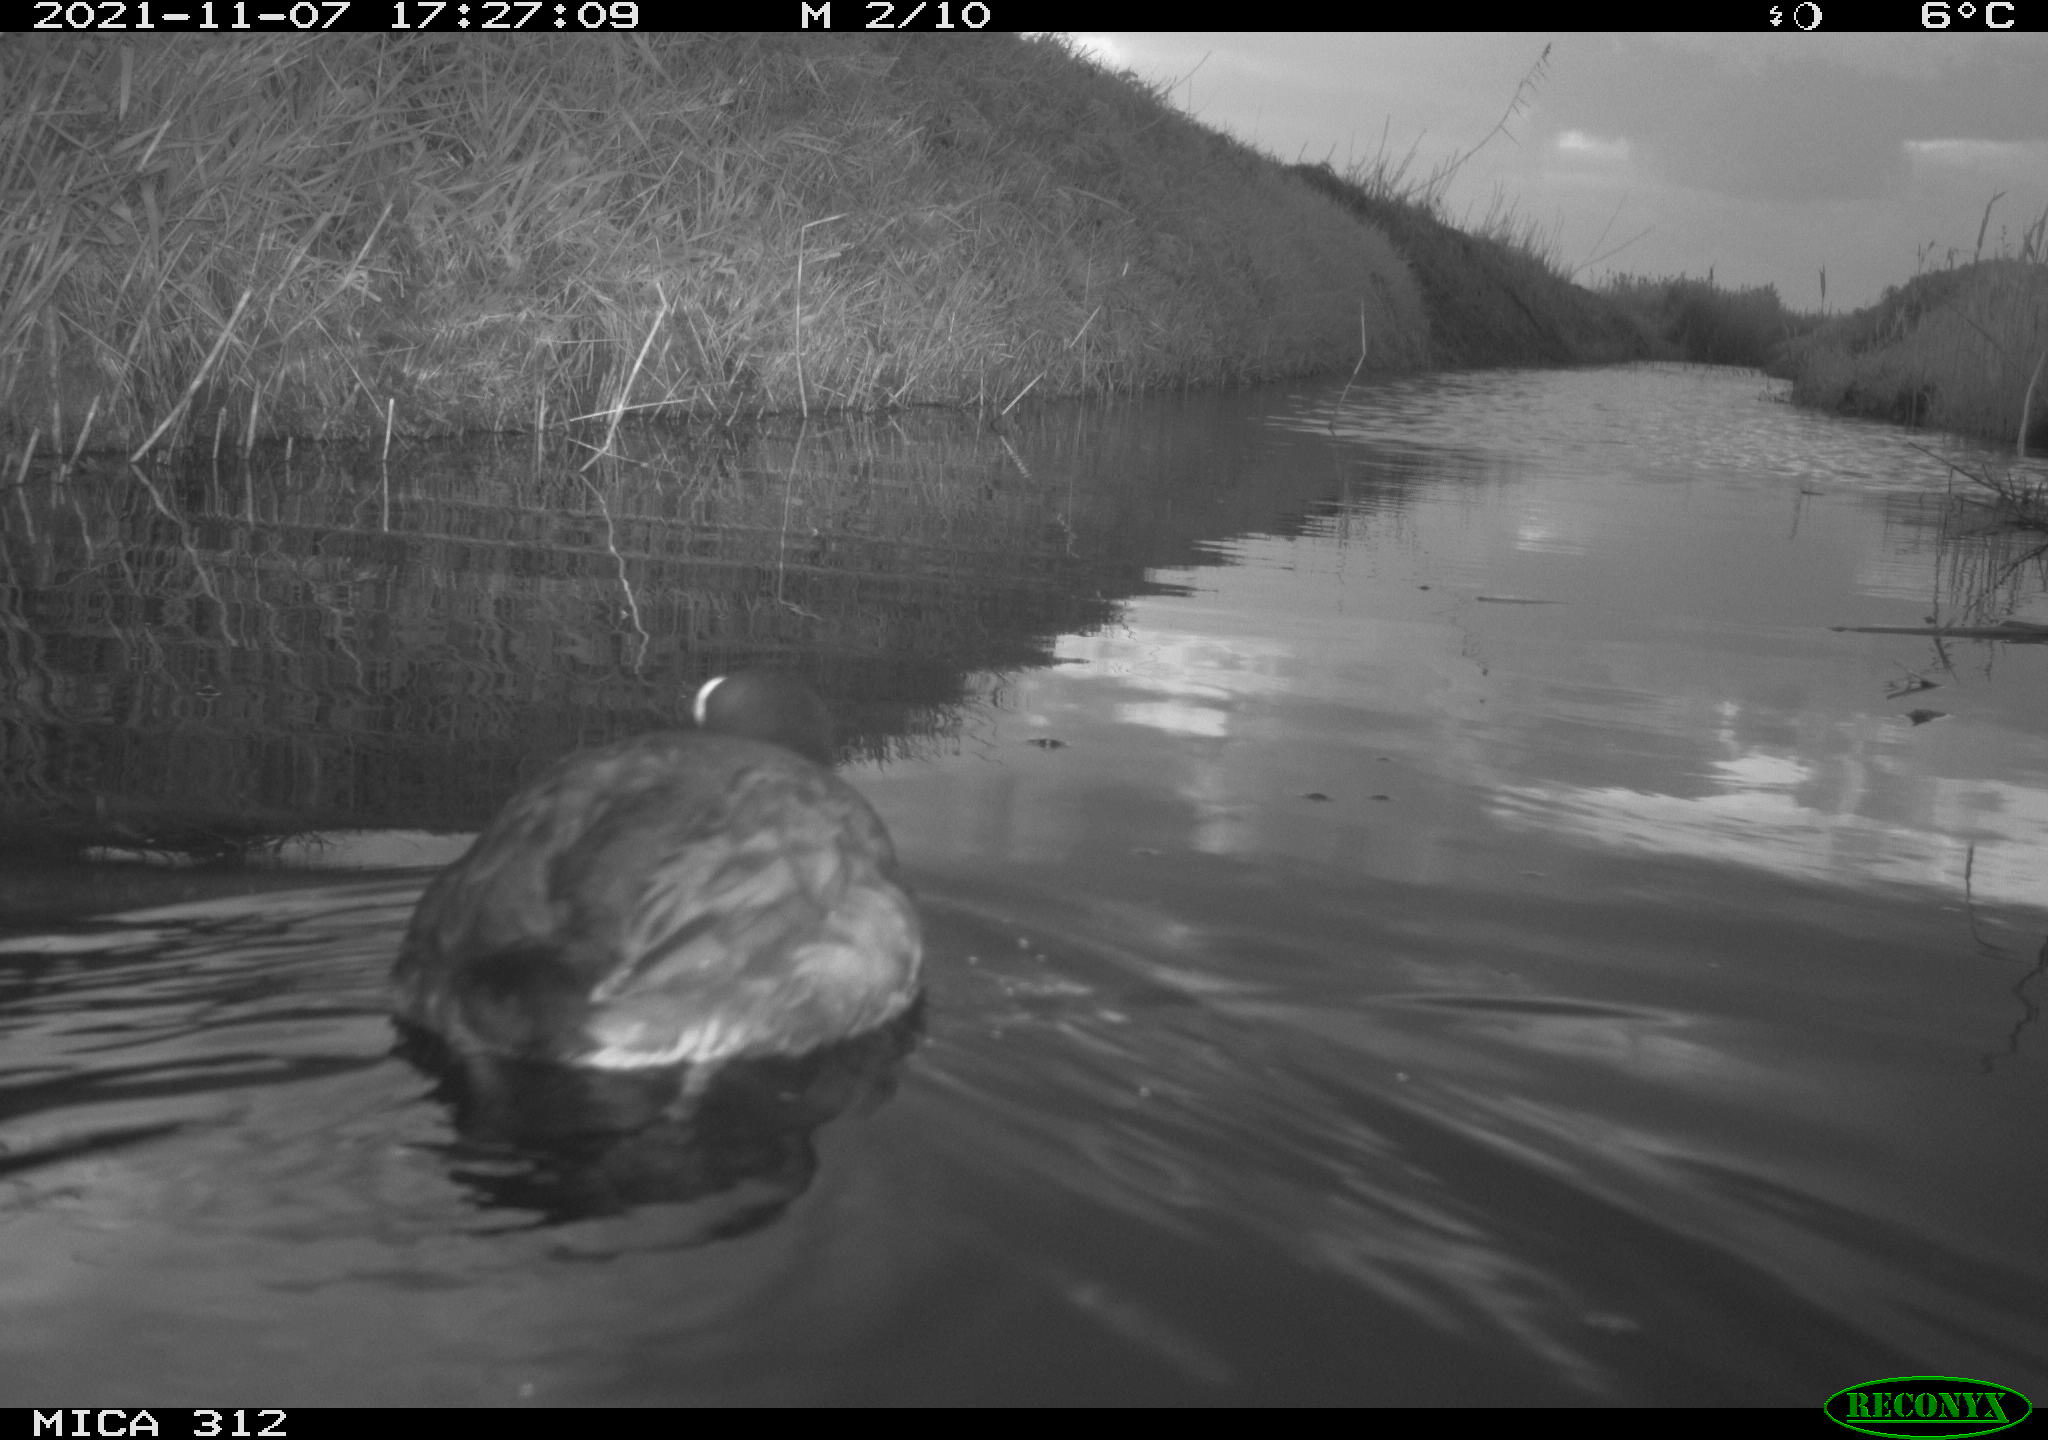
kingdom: Animalia
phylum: Chordata
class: Aves
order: Gruiformes
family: Rallidae
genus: Fulica
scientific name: Fulica atra
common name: Eurasian coot
